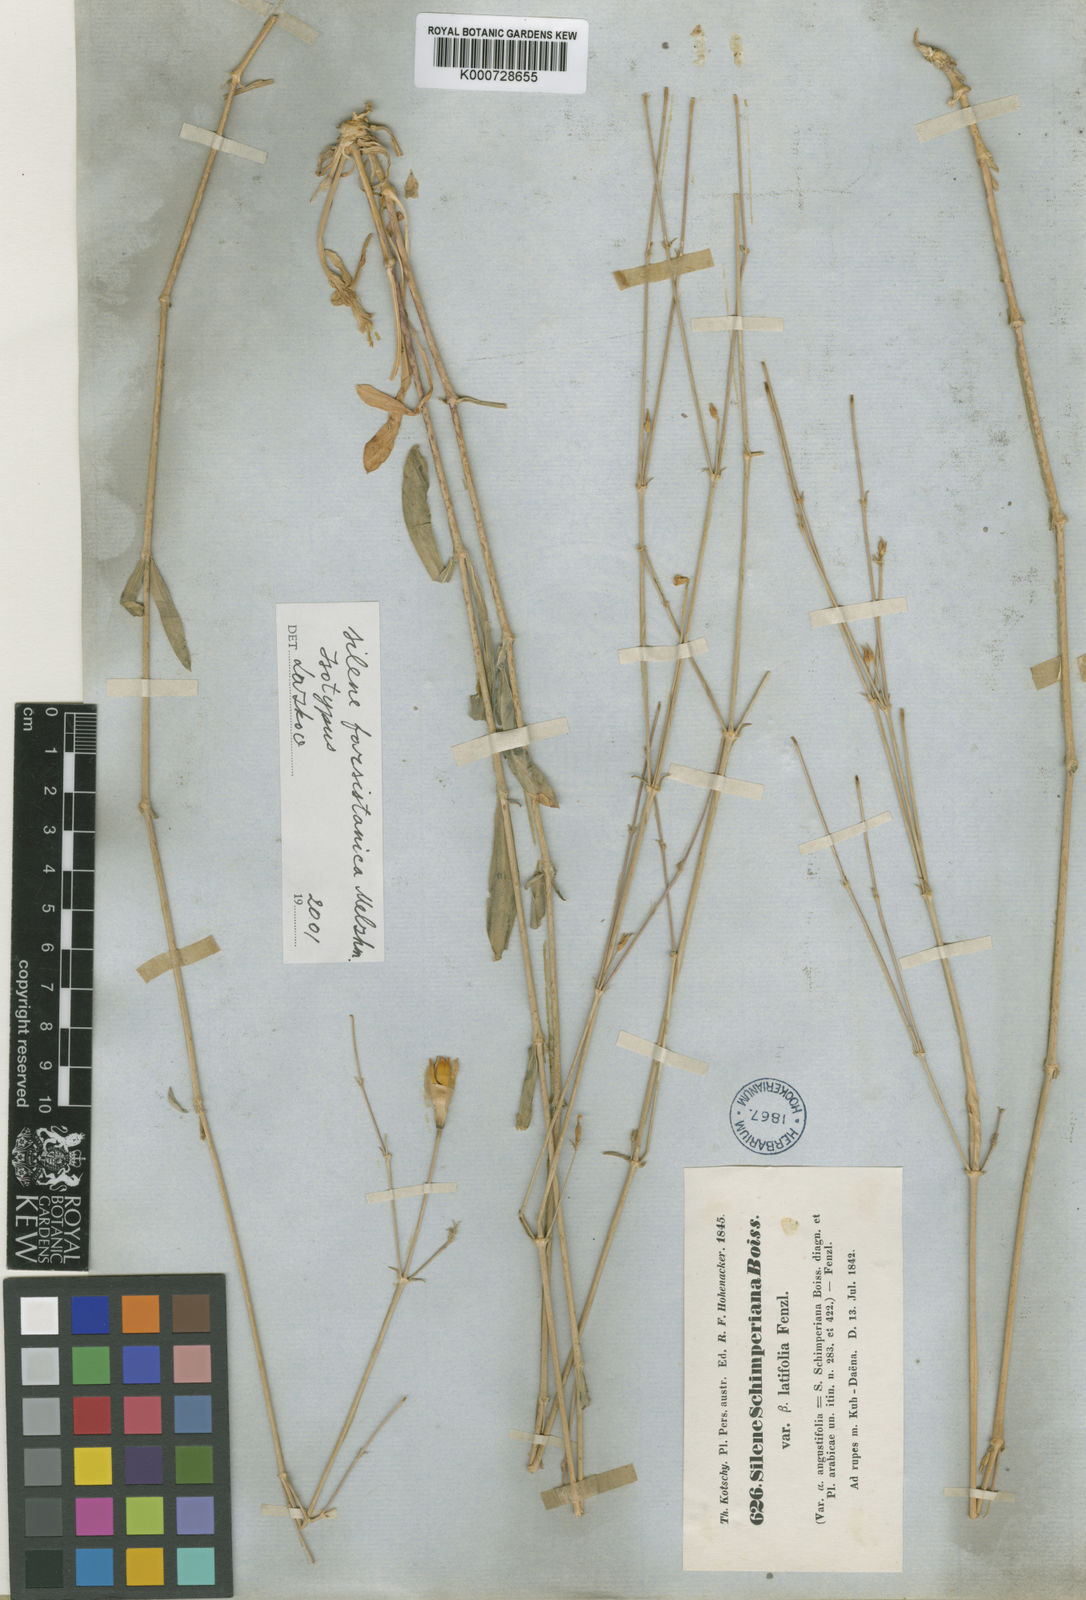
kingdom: Plantae
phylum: Tracheophyta
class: Magnoliopsida
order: Caryophyllales
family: Caryophyllaceae
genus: Silene
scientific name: Silene farsistanica
